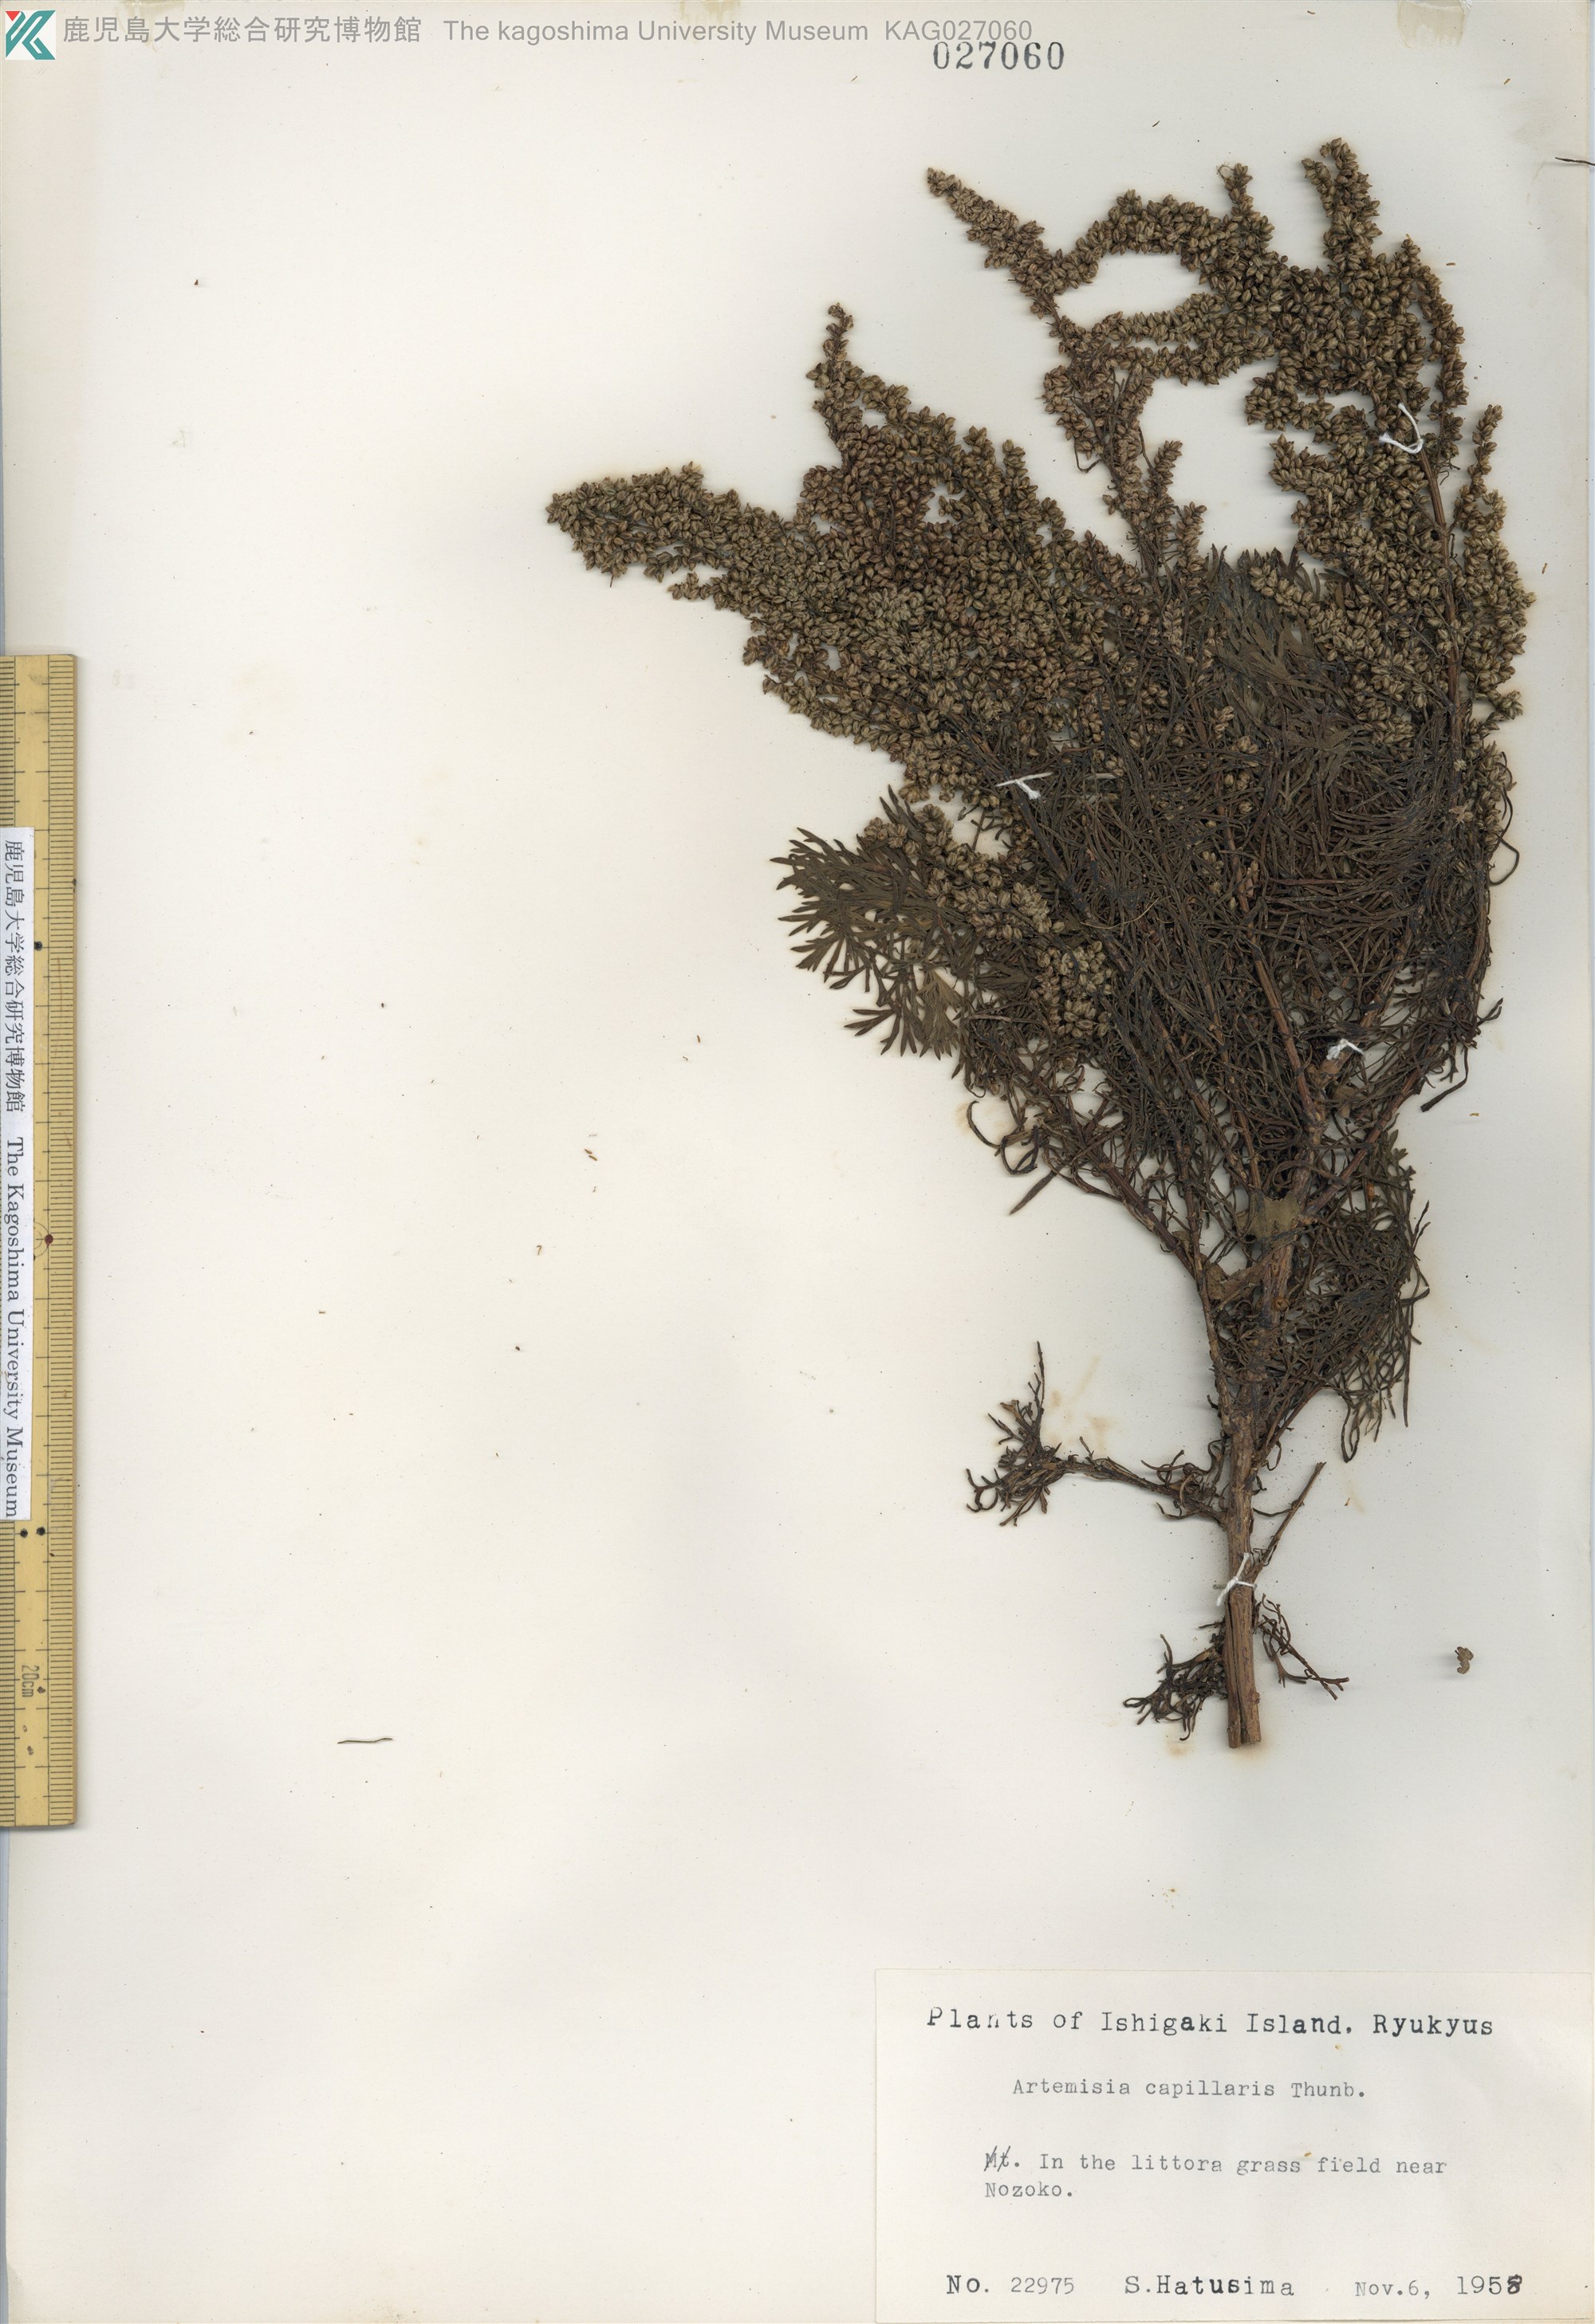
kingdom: Plantae
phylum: Tracheophyta
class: Magnoliopsida
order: Asterales
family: Asteraceae
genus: Artemisia
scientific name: Artemisia capillaris
